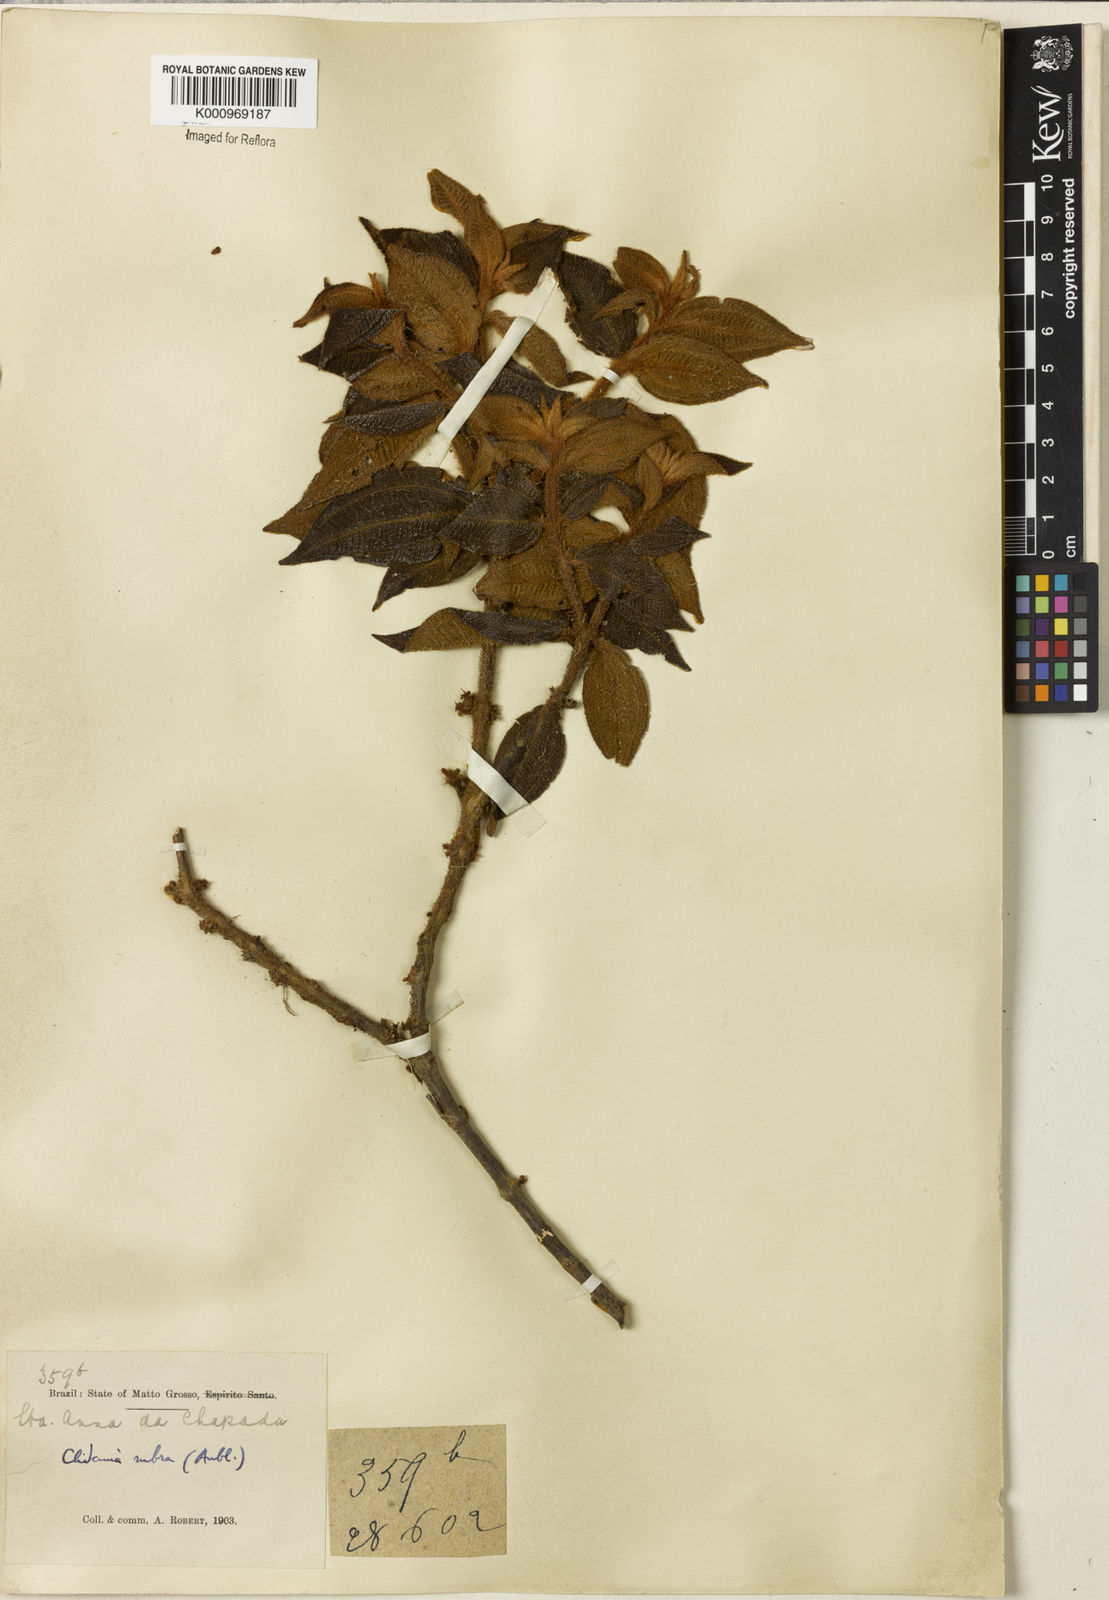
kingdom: Plantae
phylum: Tracheophyta
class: Magnoliopsida
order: Myrtales
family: Melastomataceae
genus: Miconia
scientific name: Miconia rubra
